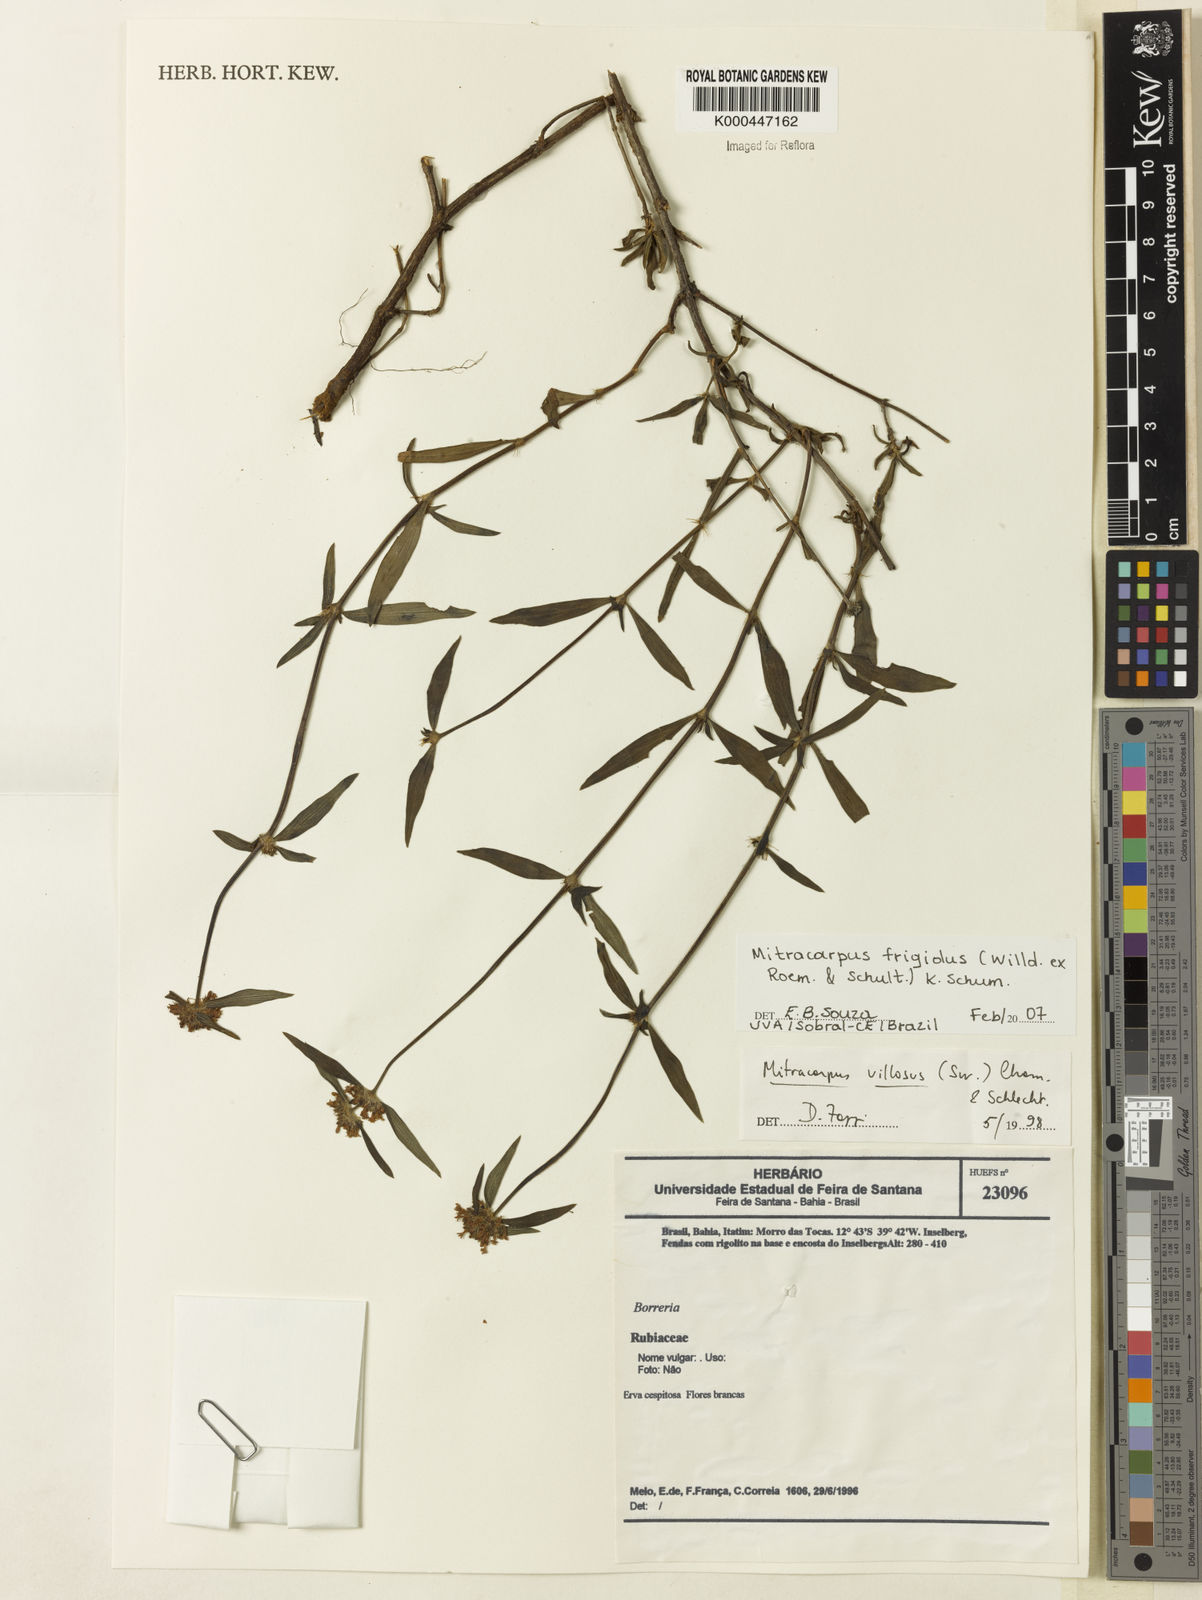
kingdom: Plantae
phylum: Tracheophyta
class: Magnoliopsida
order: Gentianales
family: Rubiaceae
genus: Mitracarpus
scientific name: Mitracarpus frigidus
